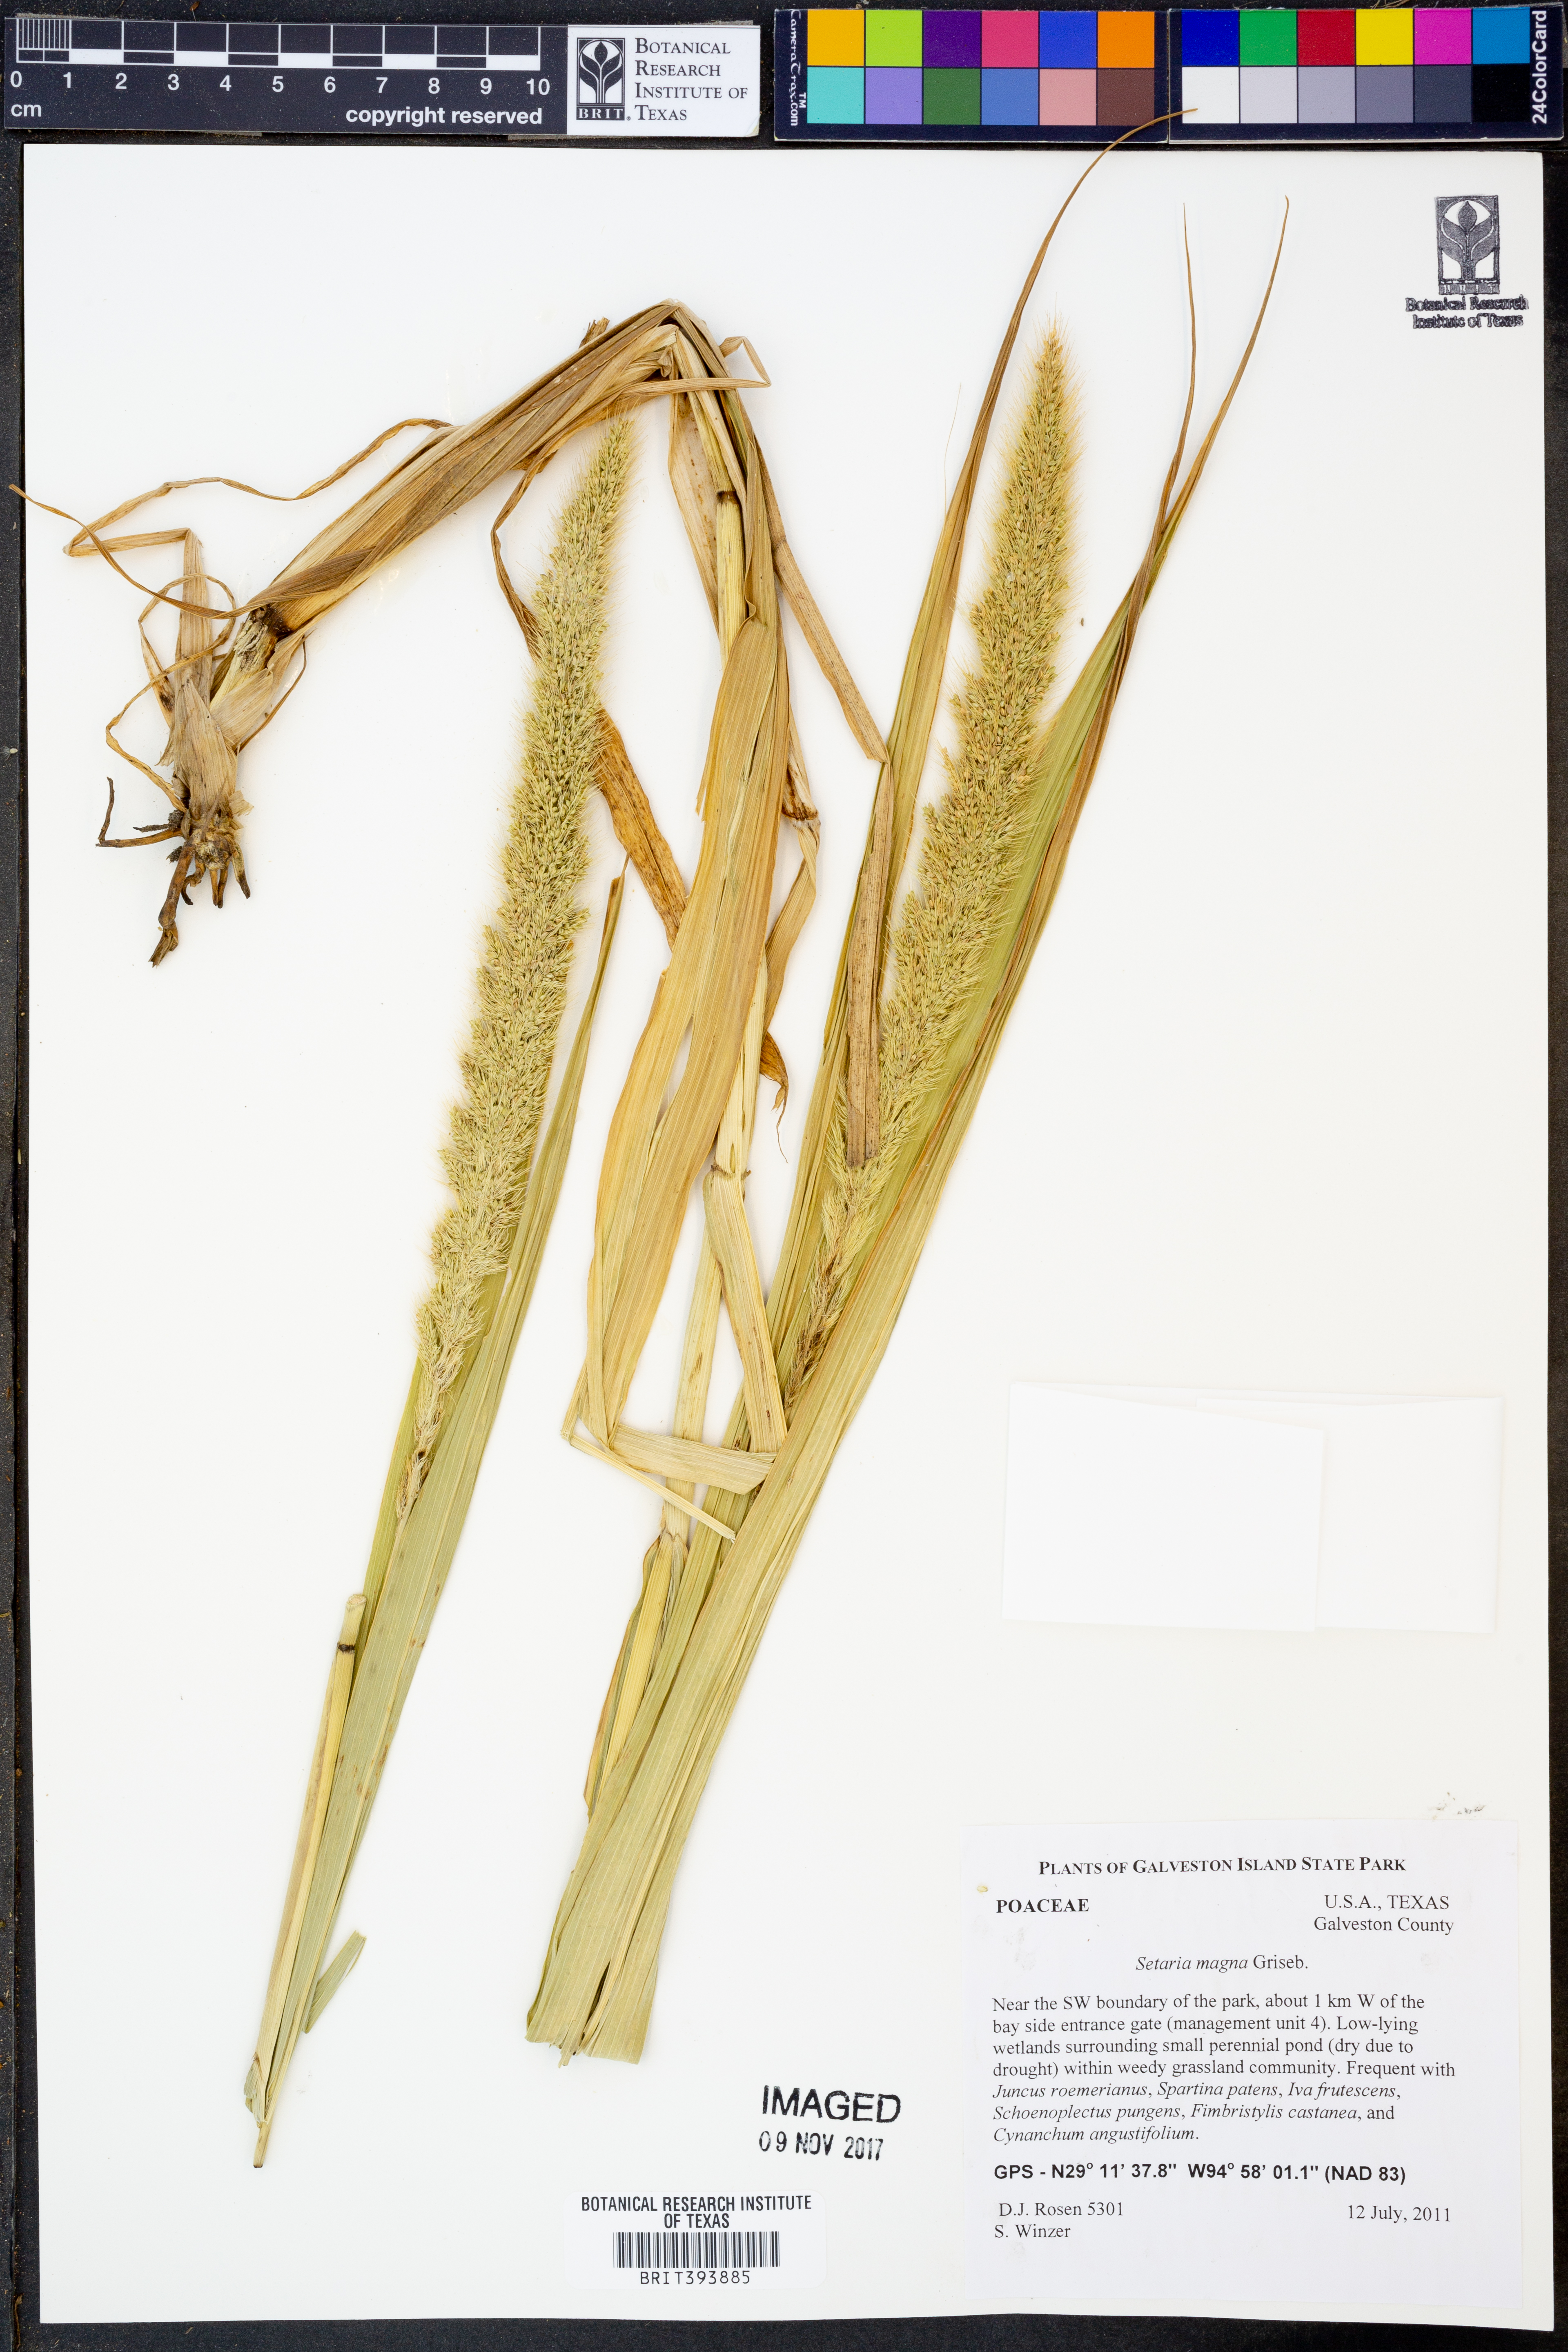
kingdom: Plantae
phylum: Tracheophyta
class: Liliopsida
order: Poales
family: Poaceae
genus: Setaria
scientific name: Setaria magna
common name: Giant bristle grass
